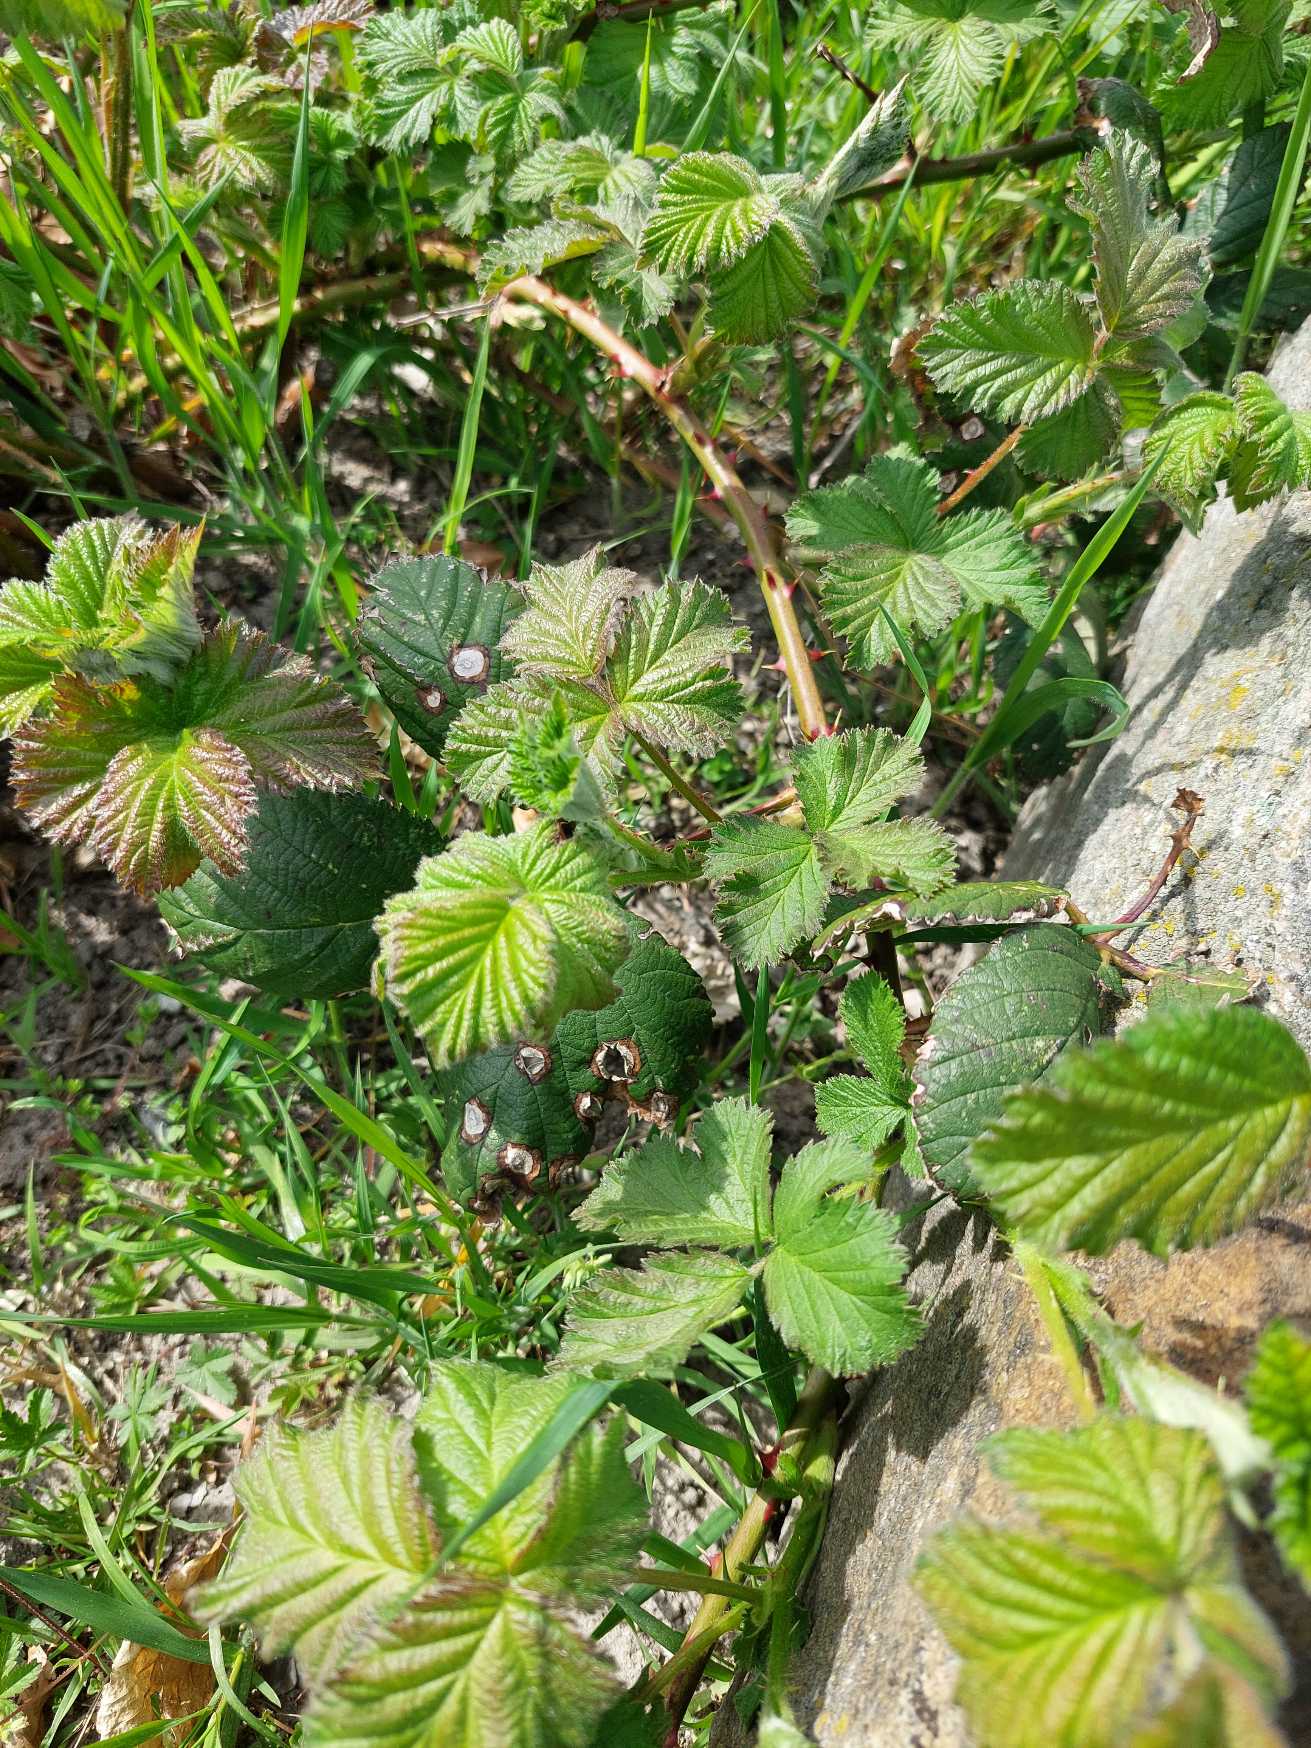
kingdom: Plantae
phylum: Tracheophyta
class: Magnoliopsida
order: Rosales
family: Rosaceae
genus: Rubus
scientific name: Rubus
